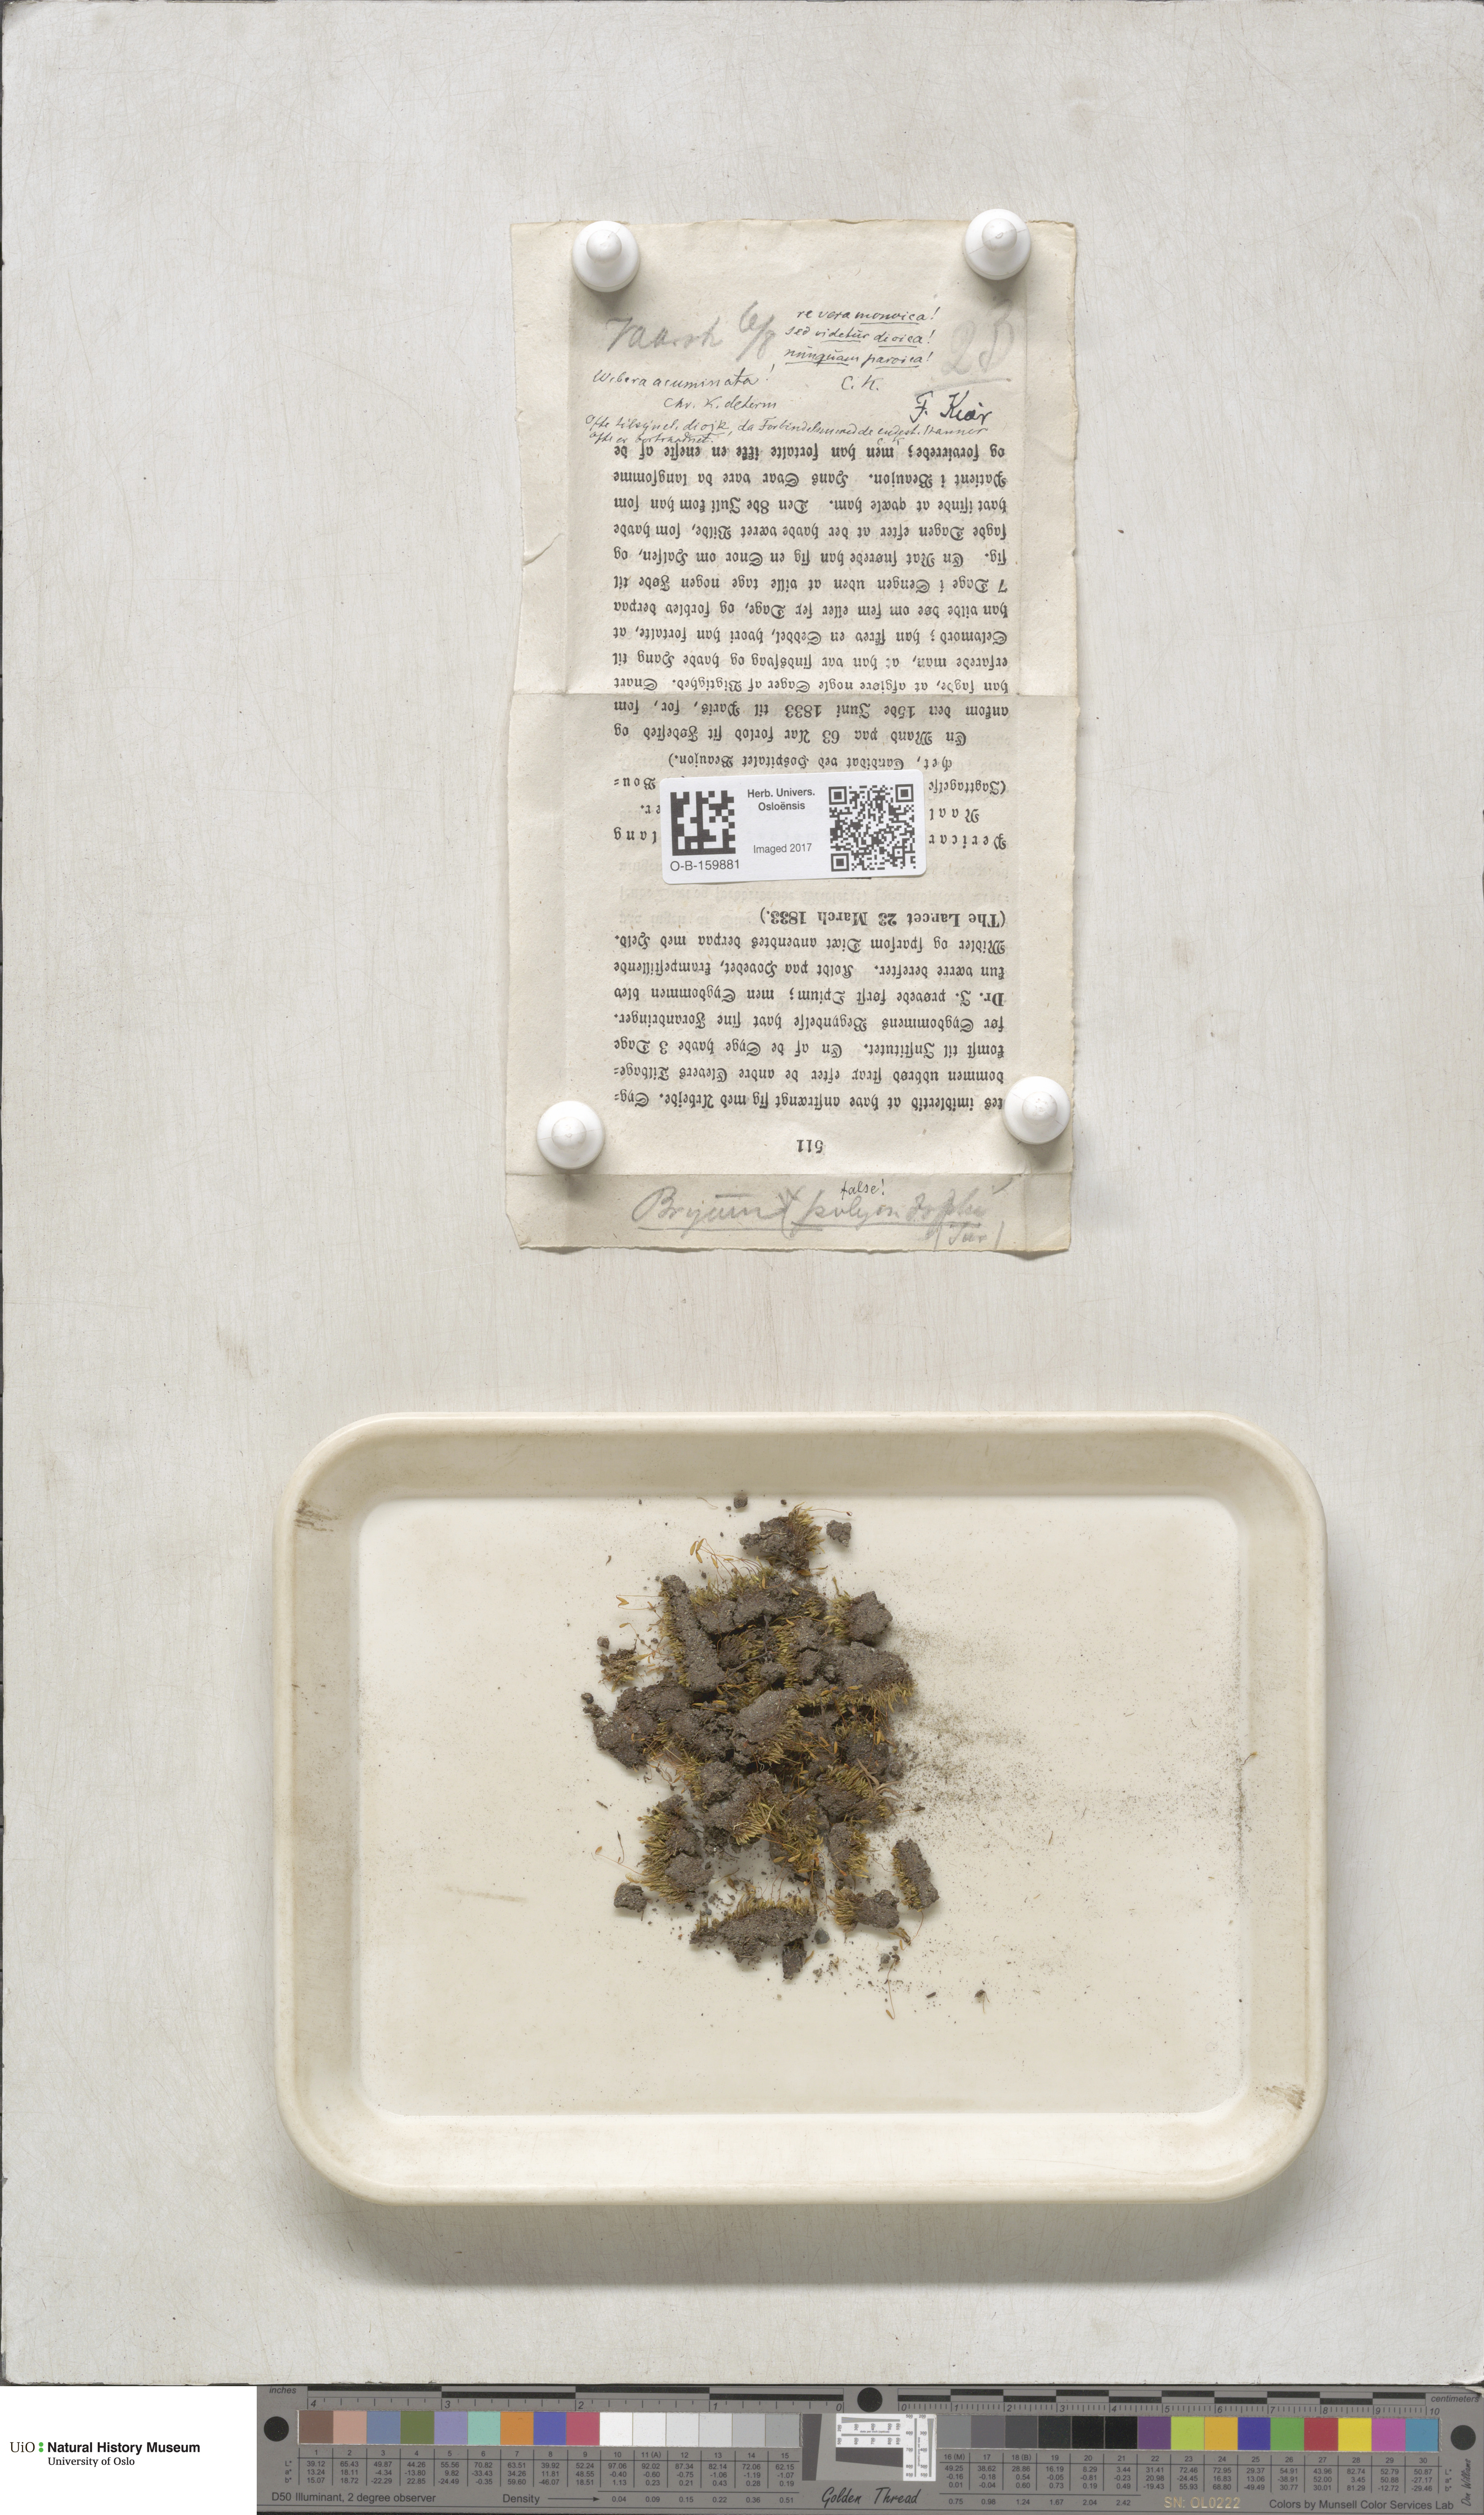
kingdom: Plantae
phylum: Bryophyta
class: Bryopsida
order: Bryales
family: Mniaceae
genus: Pohlia
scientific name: Pohlia elongata
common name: Long-fruited thread-moss
